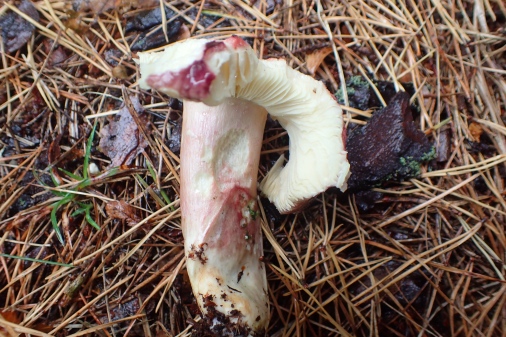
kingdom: Fungi
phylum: Basidiomycota
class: Agaricomycetes
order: Russulales
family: Russulaceae
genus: Russula
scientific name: Russula sardonia
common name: citronbladet skørhat
